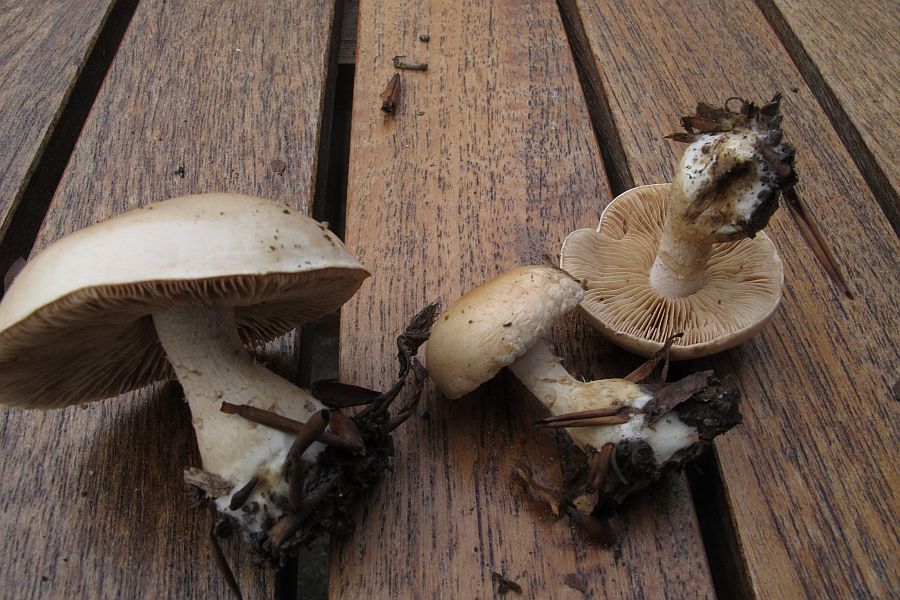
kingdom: Fungi
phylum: Basidiomycota
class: Agaricomycetes
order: Agaricales
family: Hymenogastraceae
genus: Hebeloma
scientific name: Hebeloma laterinum
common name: kakao-tåreblad
